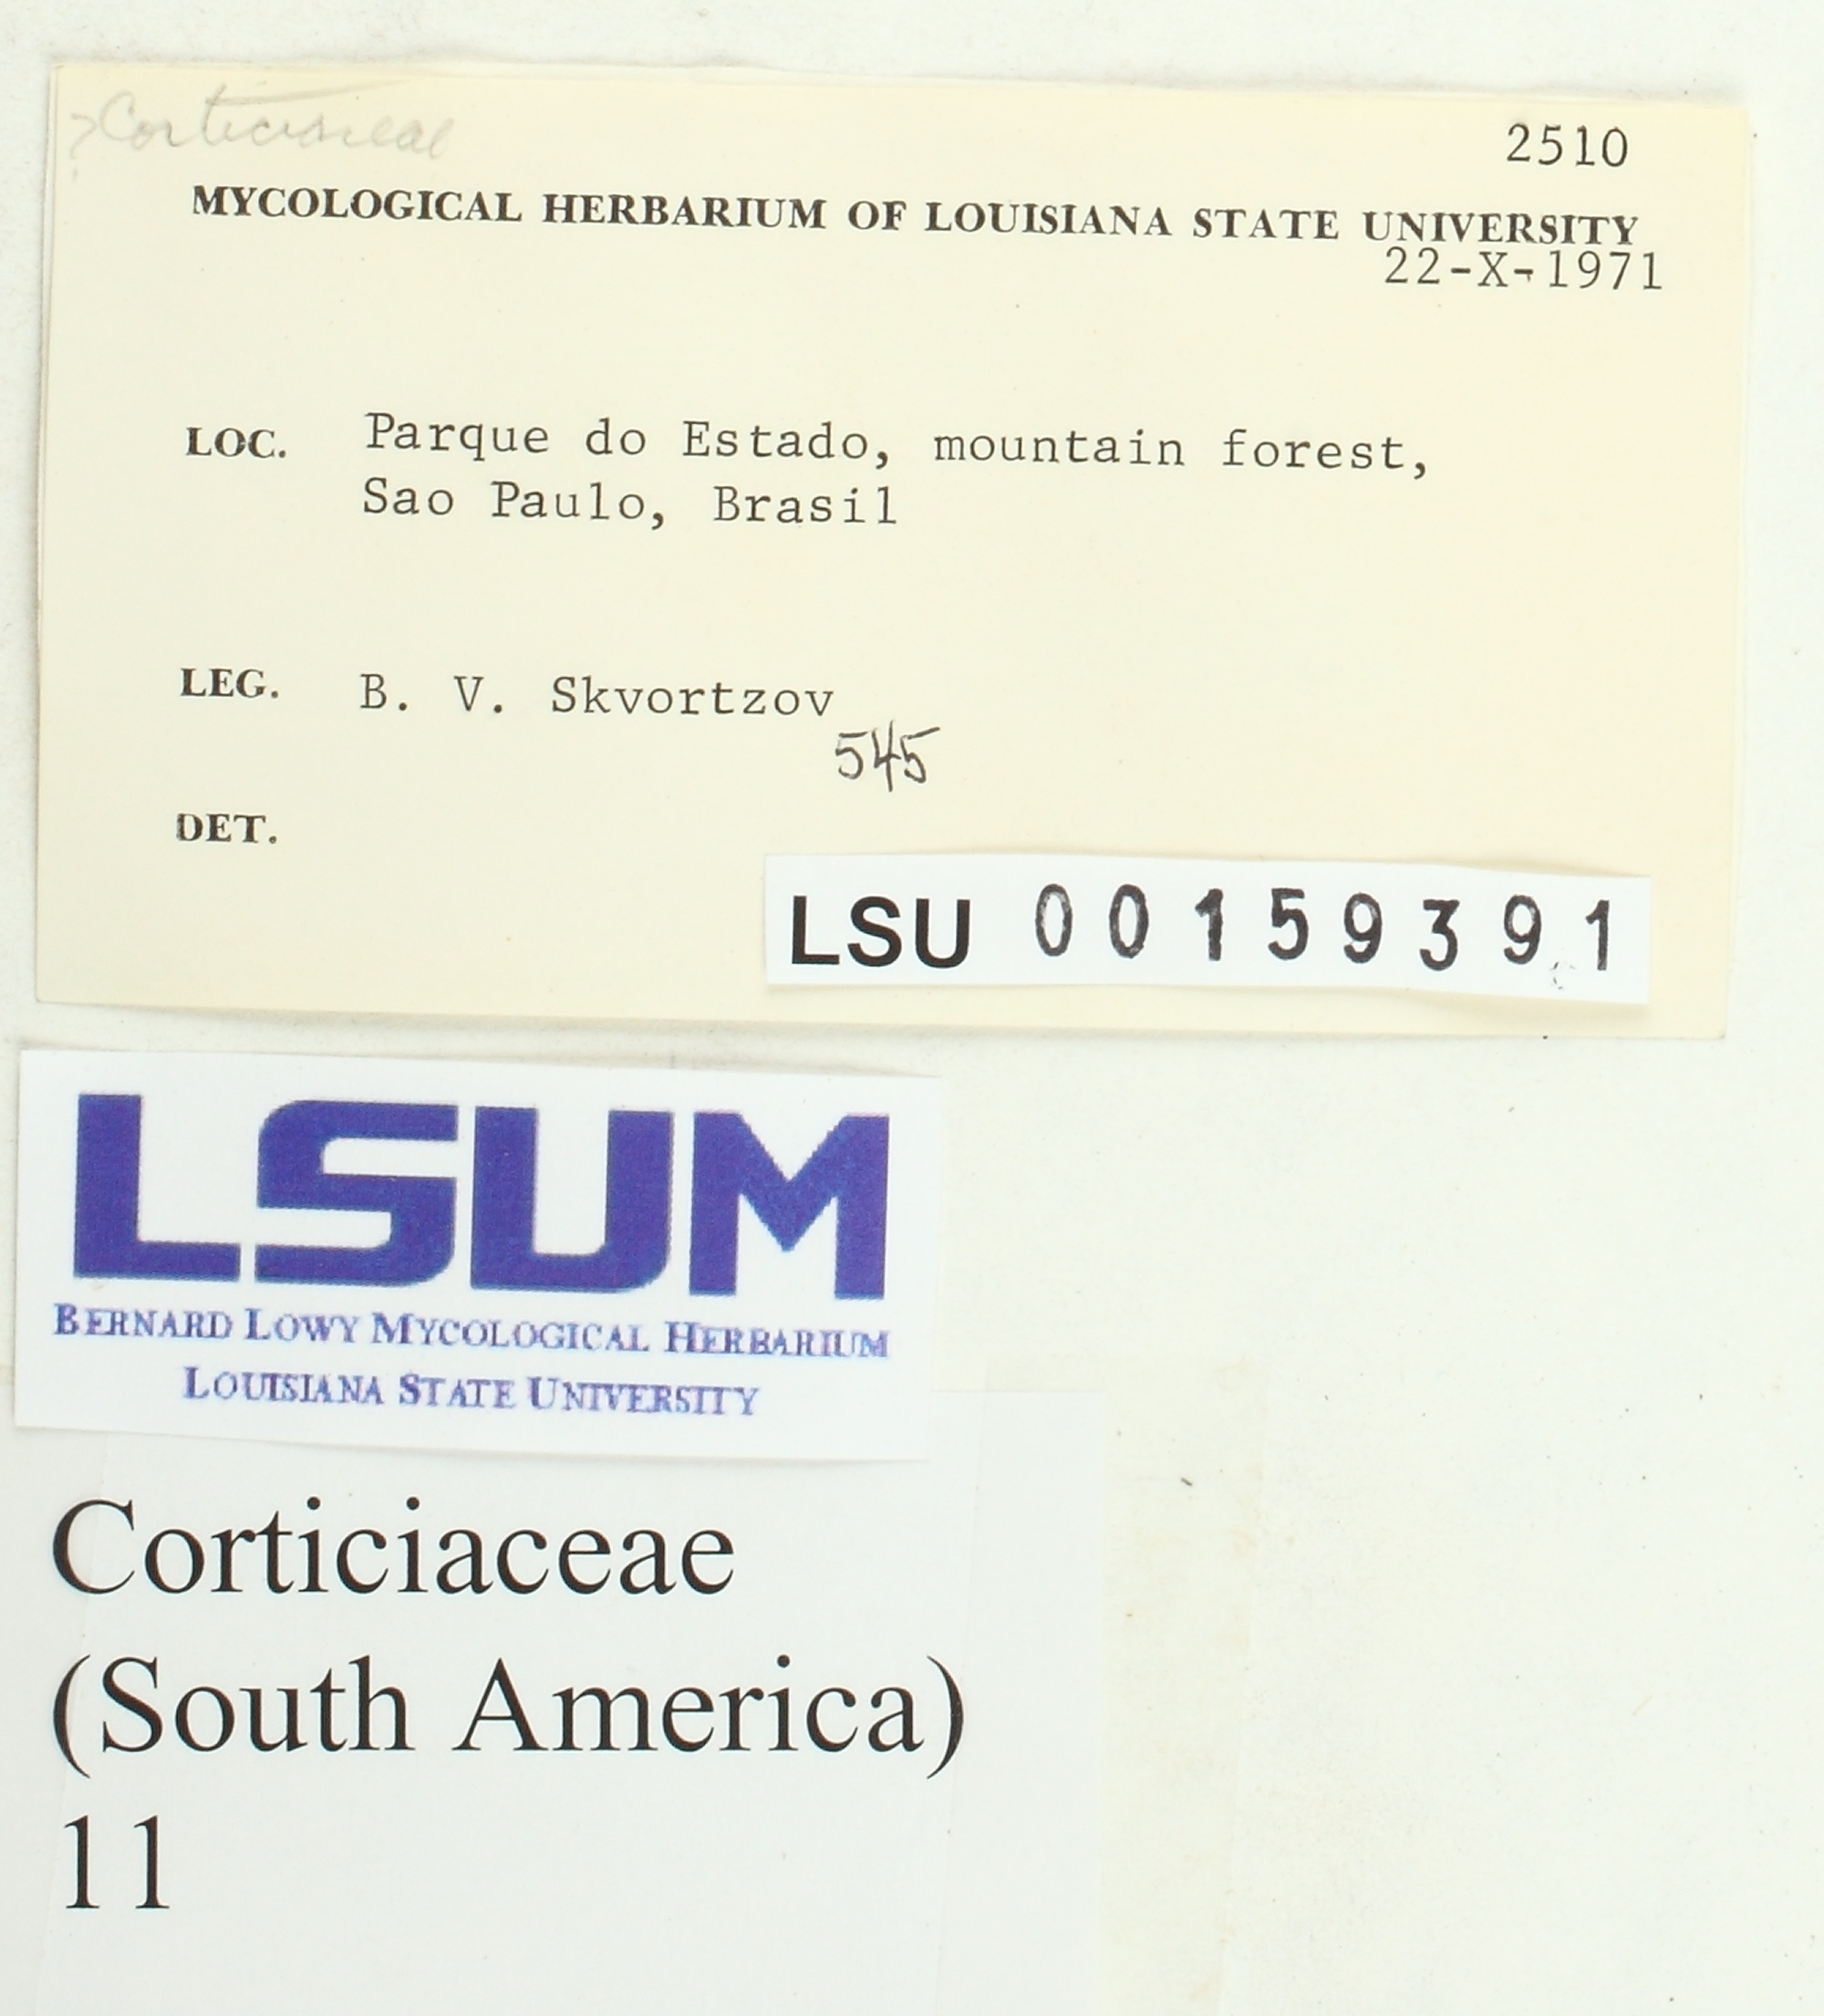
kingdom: Fungi
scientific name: Fungi
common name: Fungi
